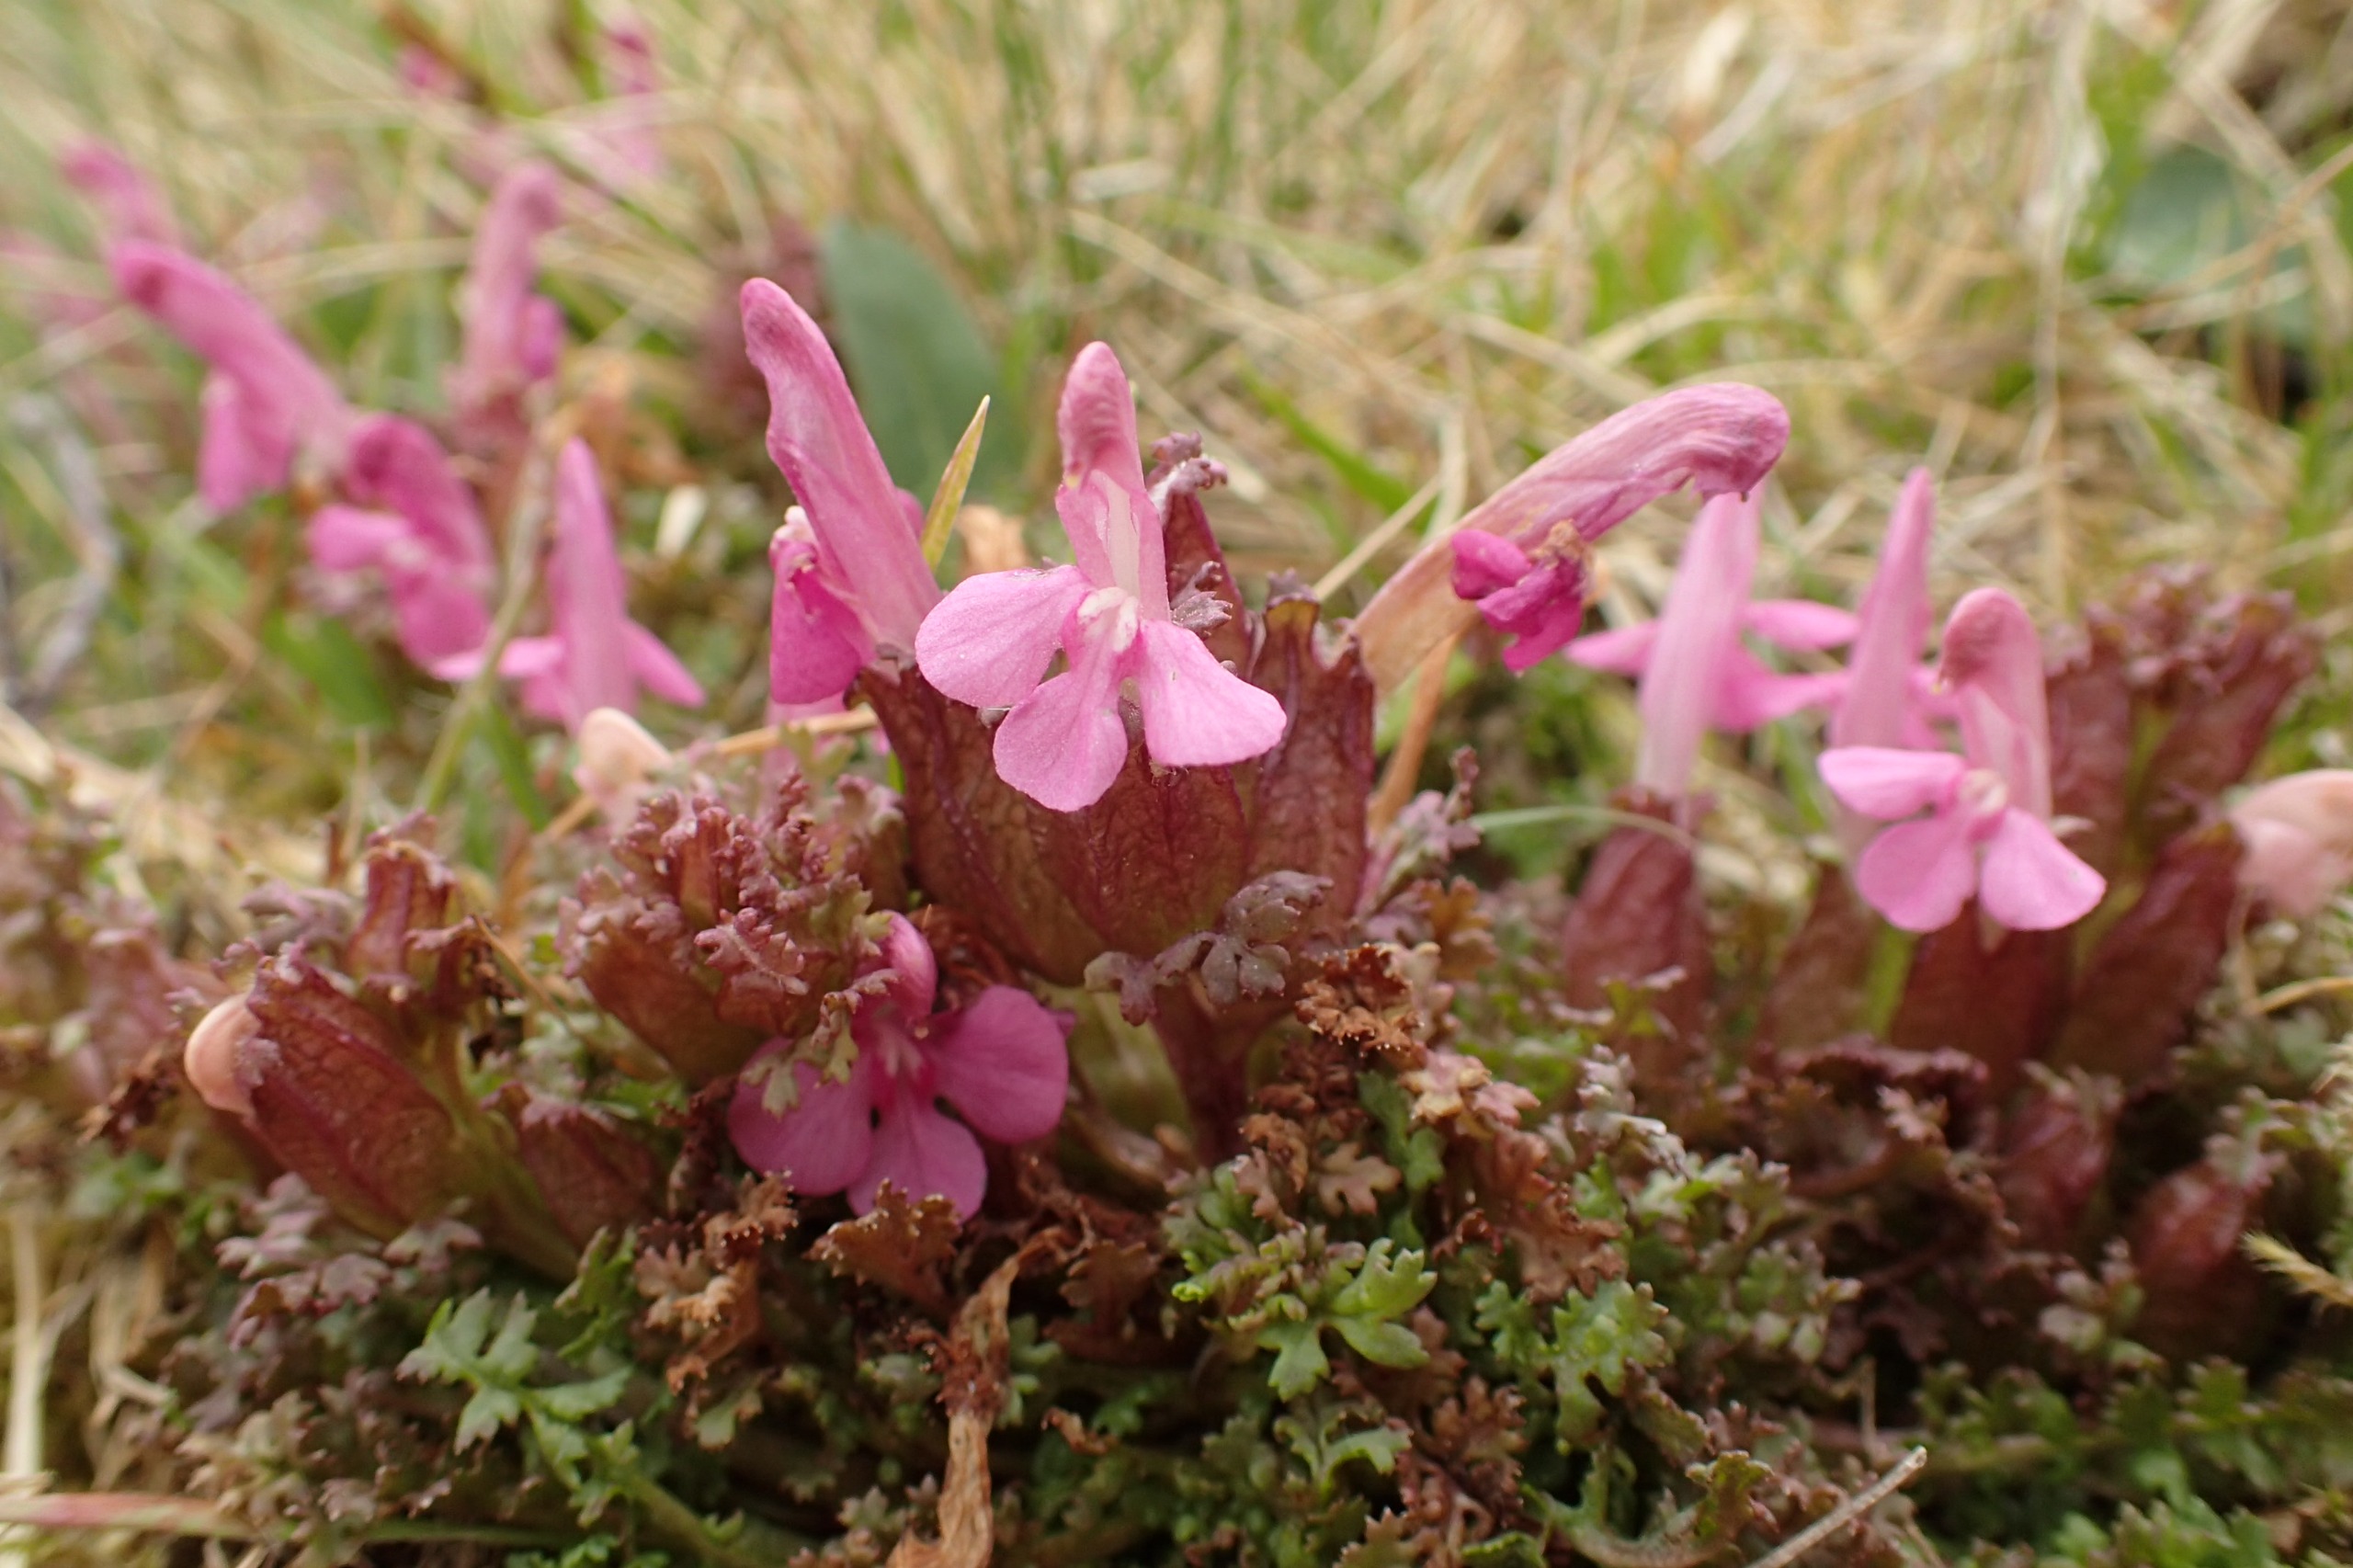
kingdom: Plantae
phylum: Tracheophyta
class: Magnoliopsida
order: Lamiales
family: Orobanchaceae
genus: Pedicularis
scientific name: Pedicularis sylvatica
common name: Mose-troldurt
